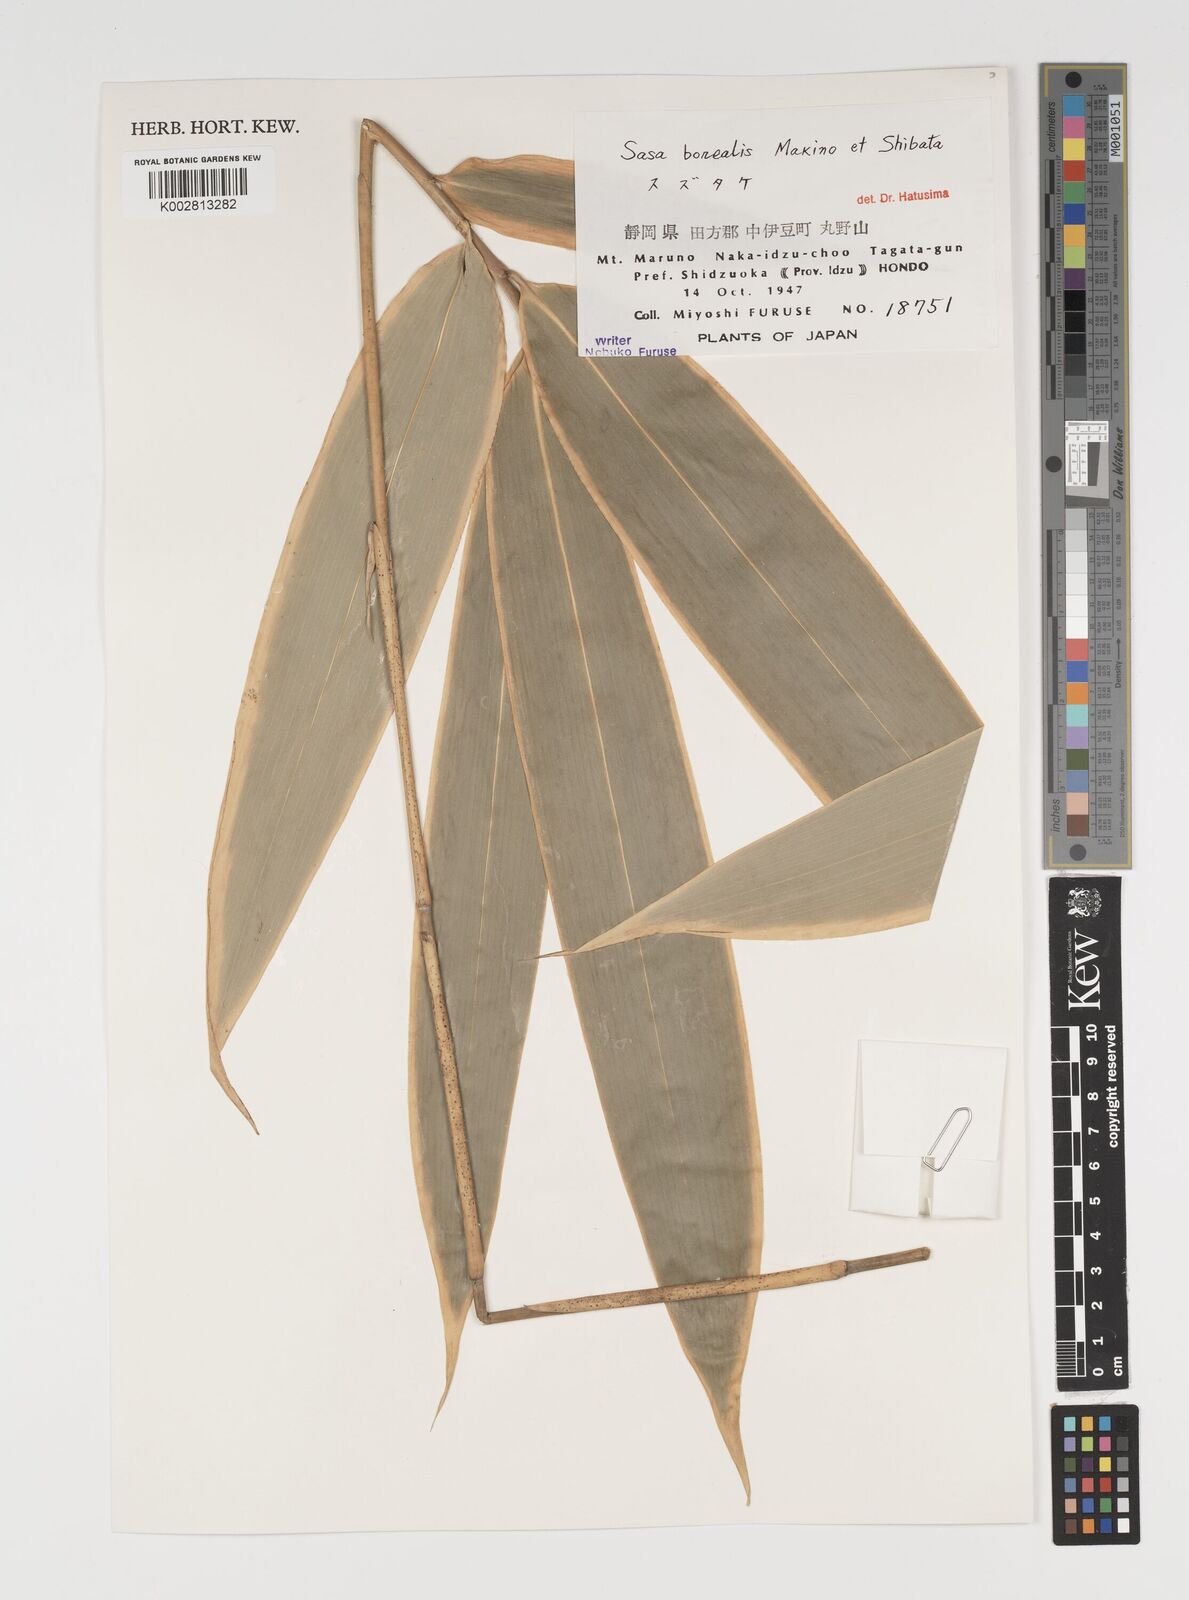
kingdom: Plantae
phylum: Tracheophyta
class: Liliopsida
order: Poales
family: Poaceae
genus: Sasamorpha
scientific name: Sasamorpha borealis
